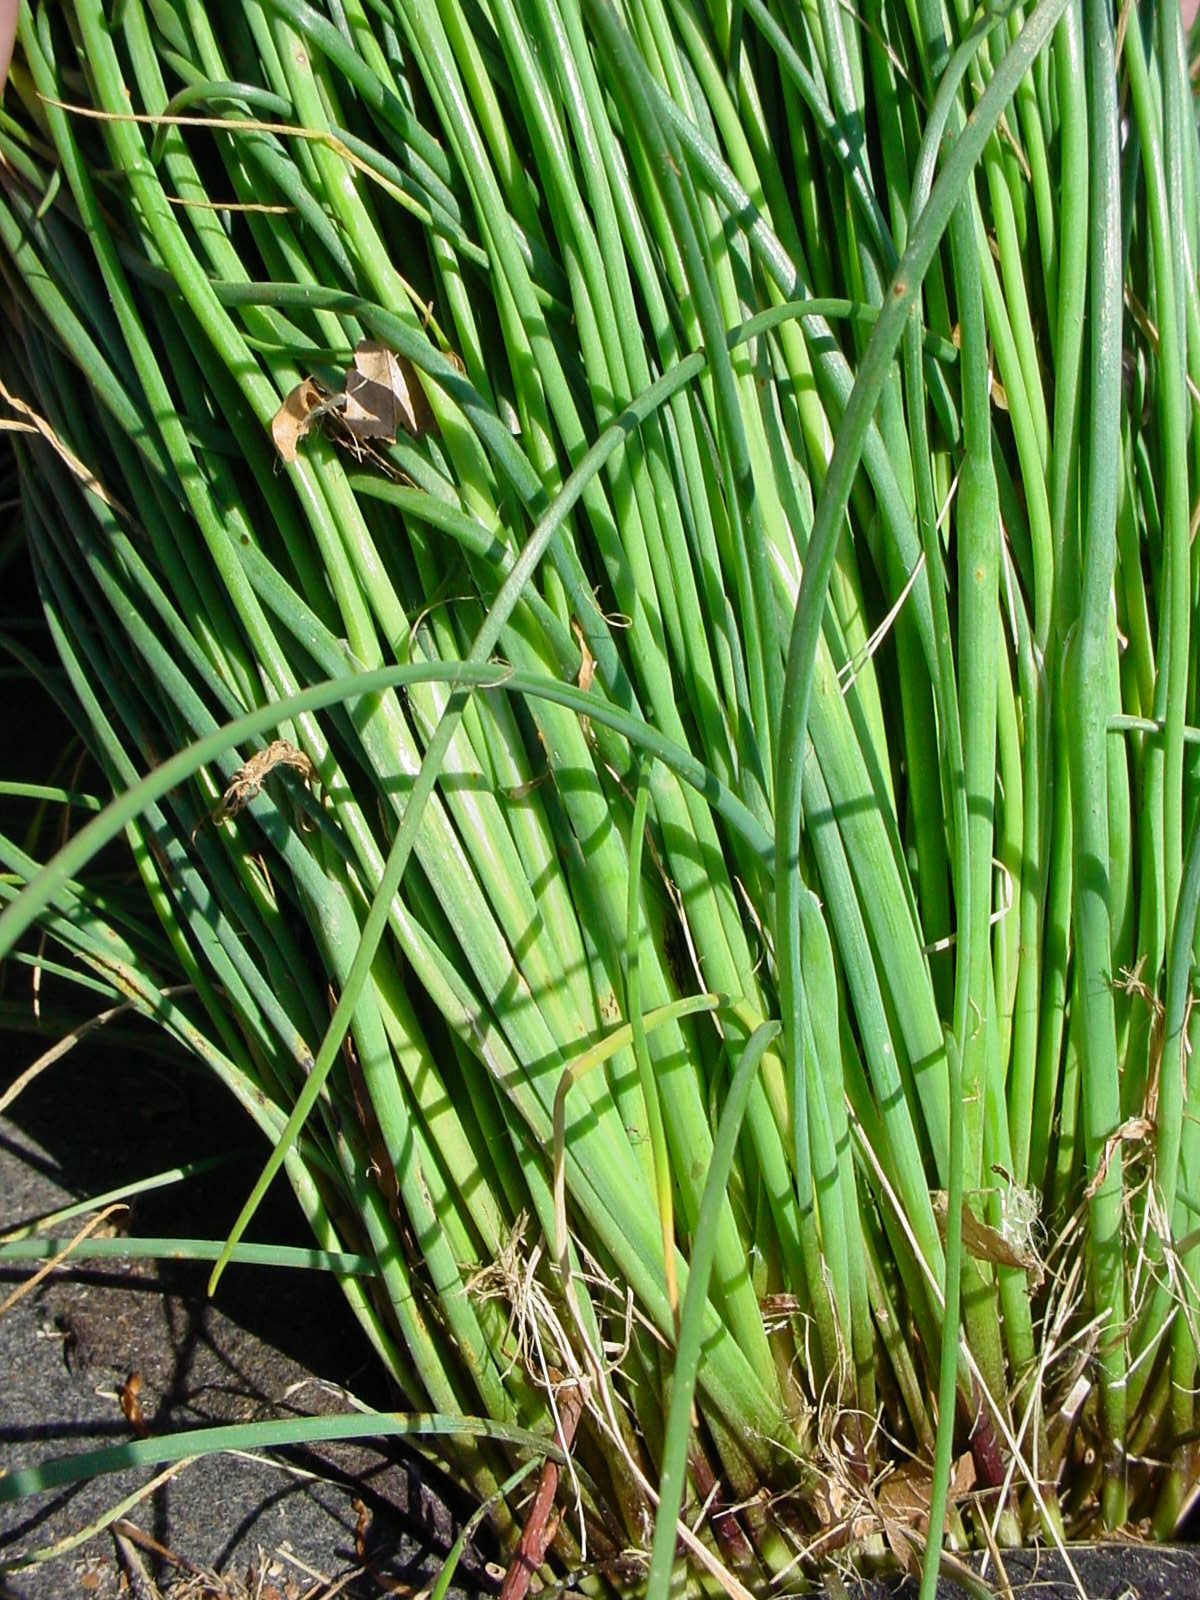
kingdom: Plantae
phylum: Tracheophyta
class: Liliopsida
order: Asparagales
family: Amaryllidaceae
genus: Allium
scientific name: Allium schoenoprasum
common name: Chives
